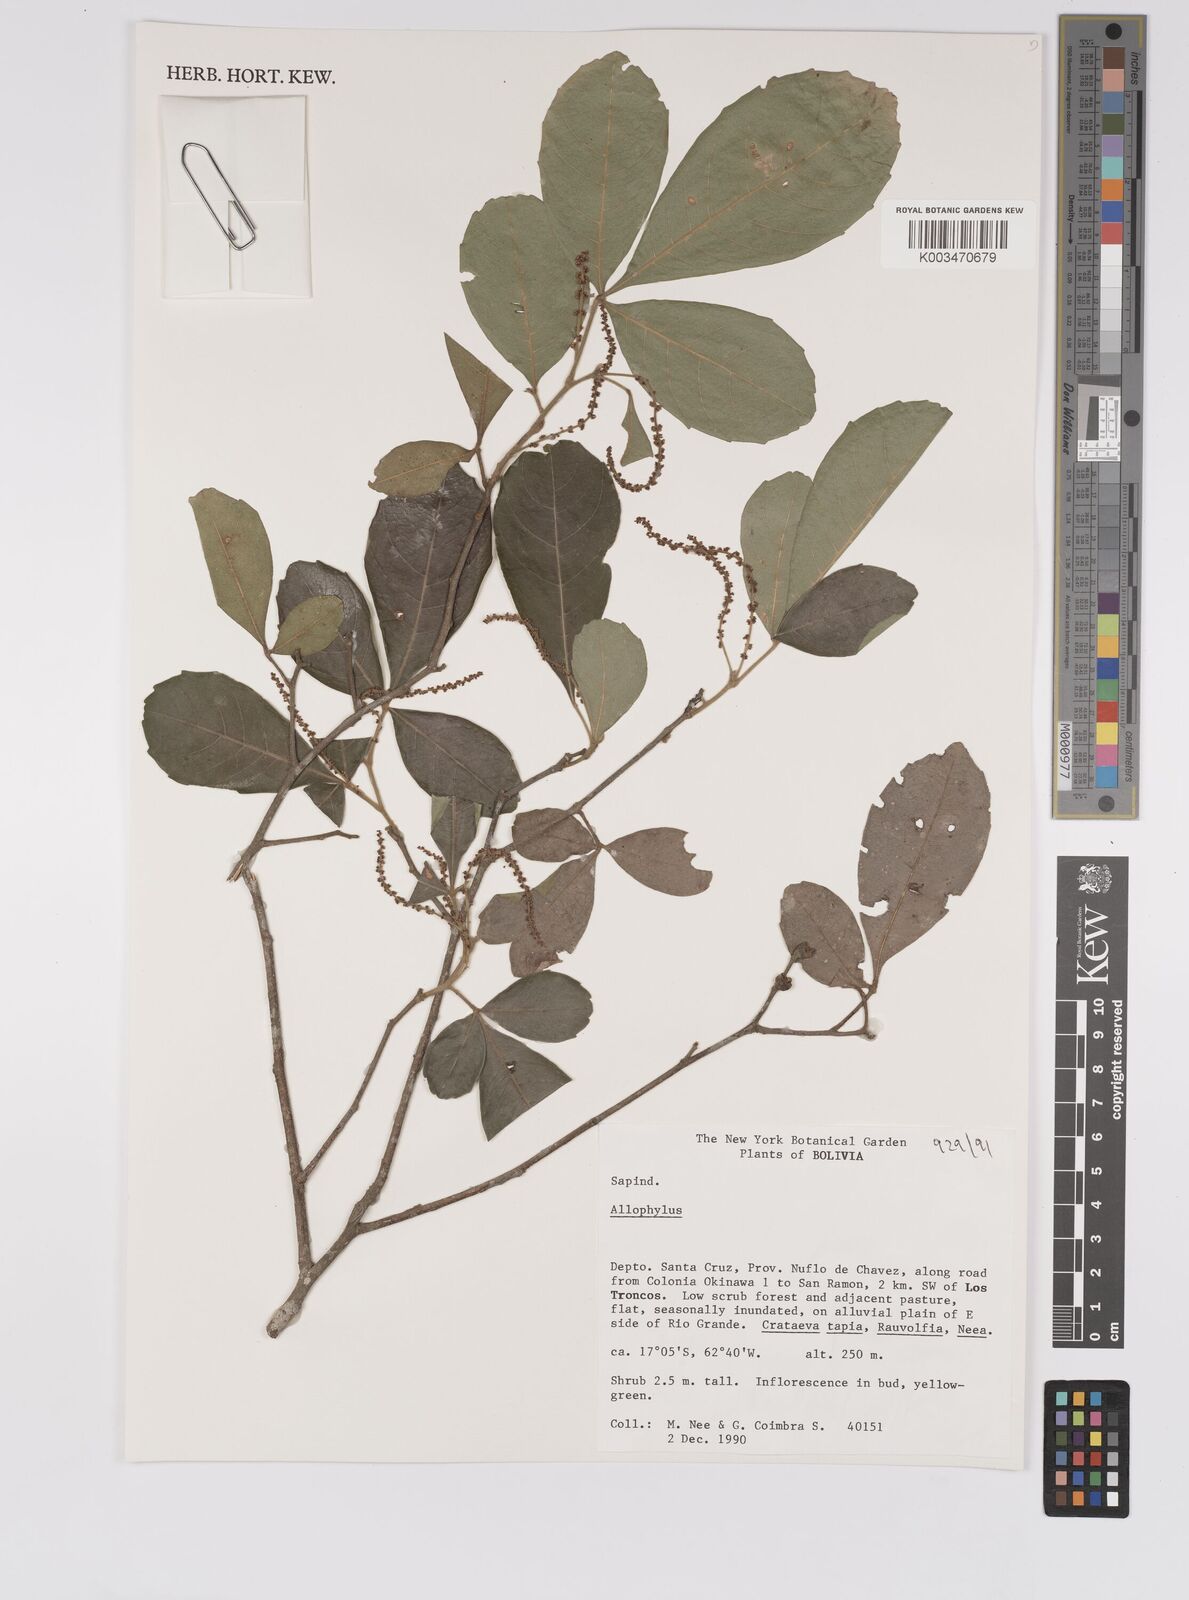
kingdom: Plantae
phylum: Tracheophyta
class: Magnoliopsida
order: Sapindales
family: Sapindaceae
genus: Allophylus
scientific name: Allophylus
